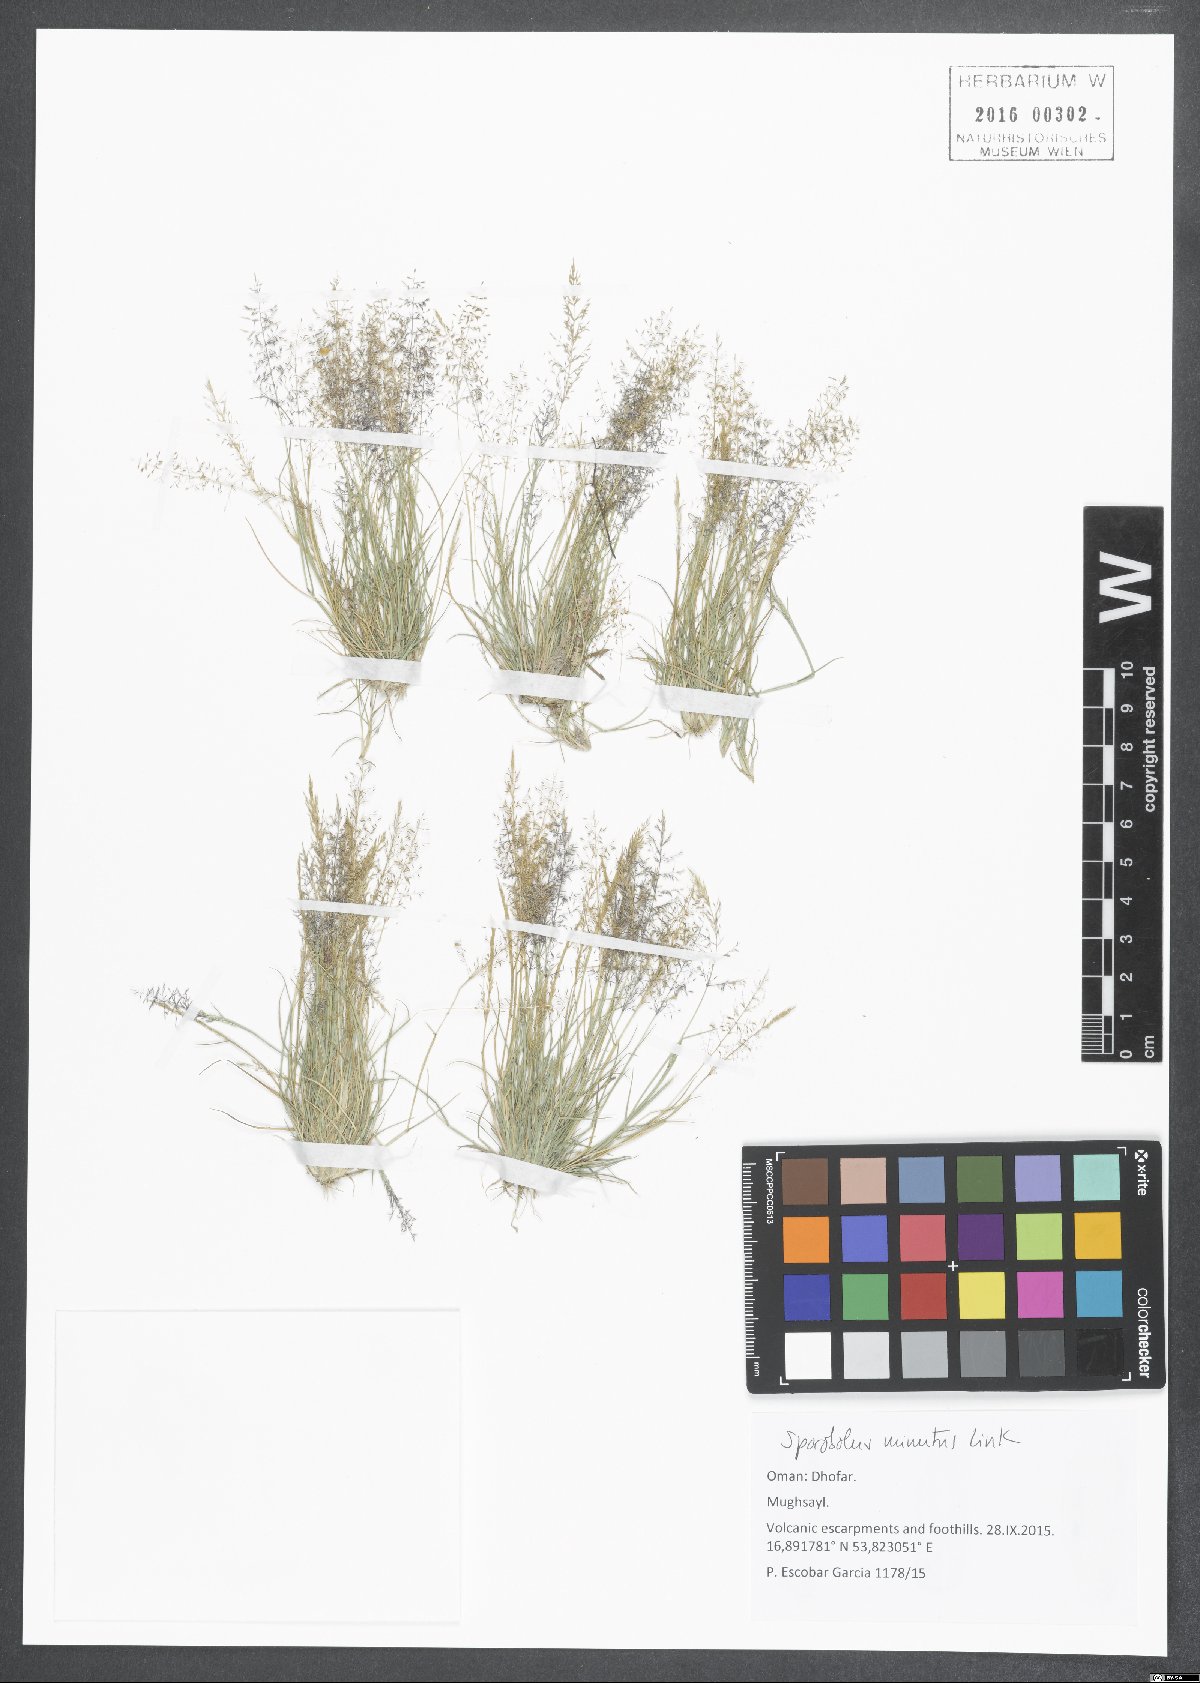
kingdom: Plantae
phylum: Tracheophyta
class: Liliopsida
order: Poales
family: Poaceae
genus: Sporobolus
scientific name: Sporobolus minutus
